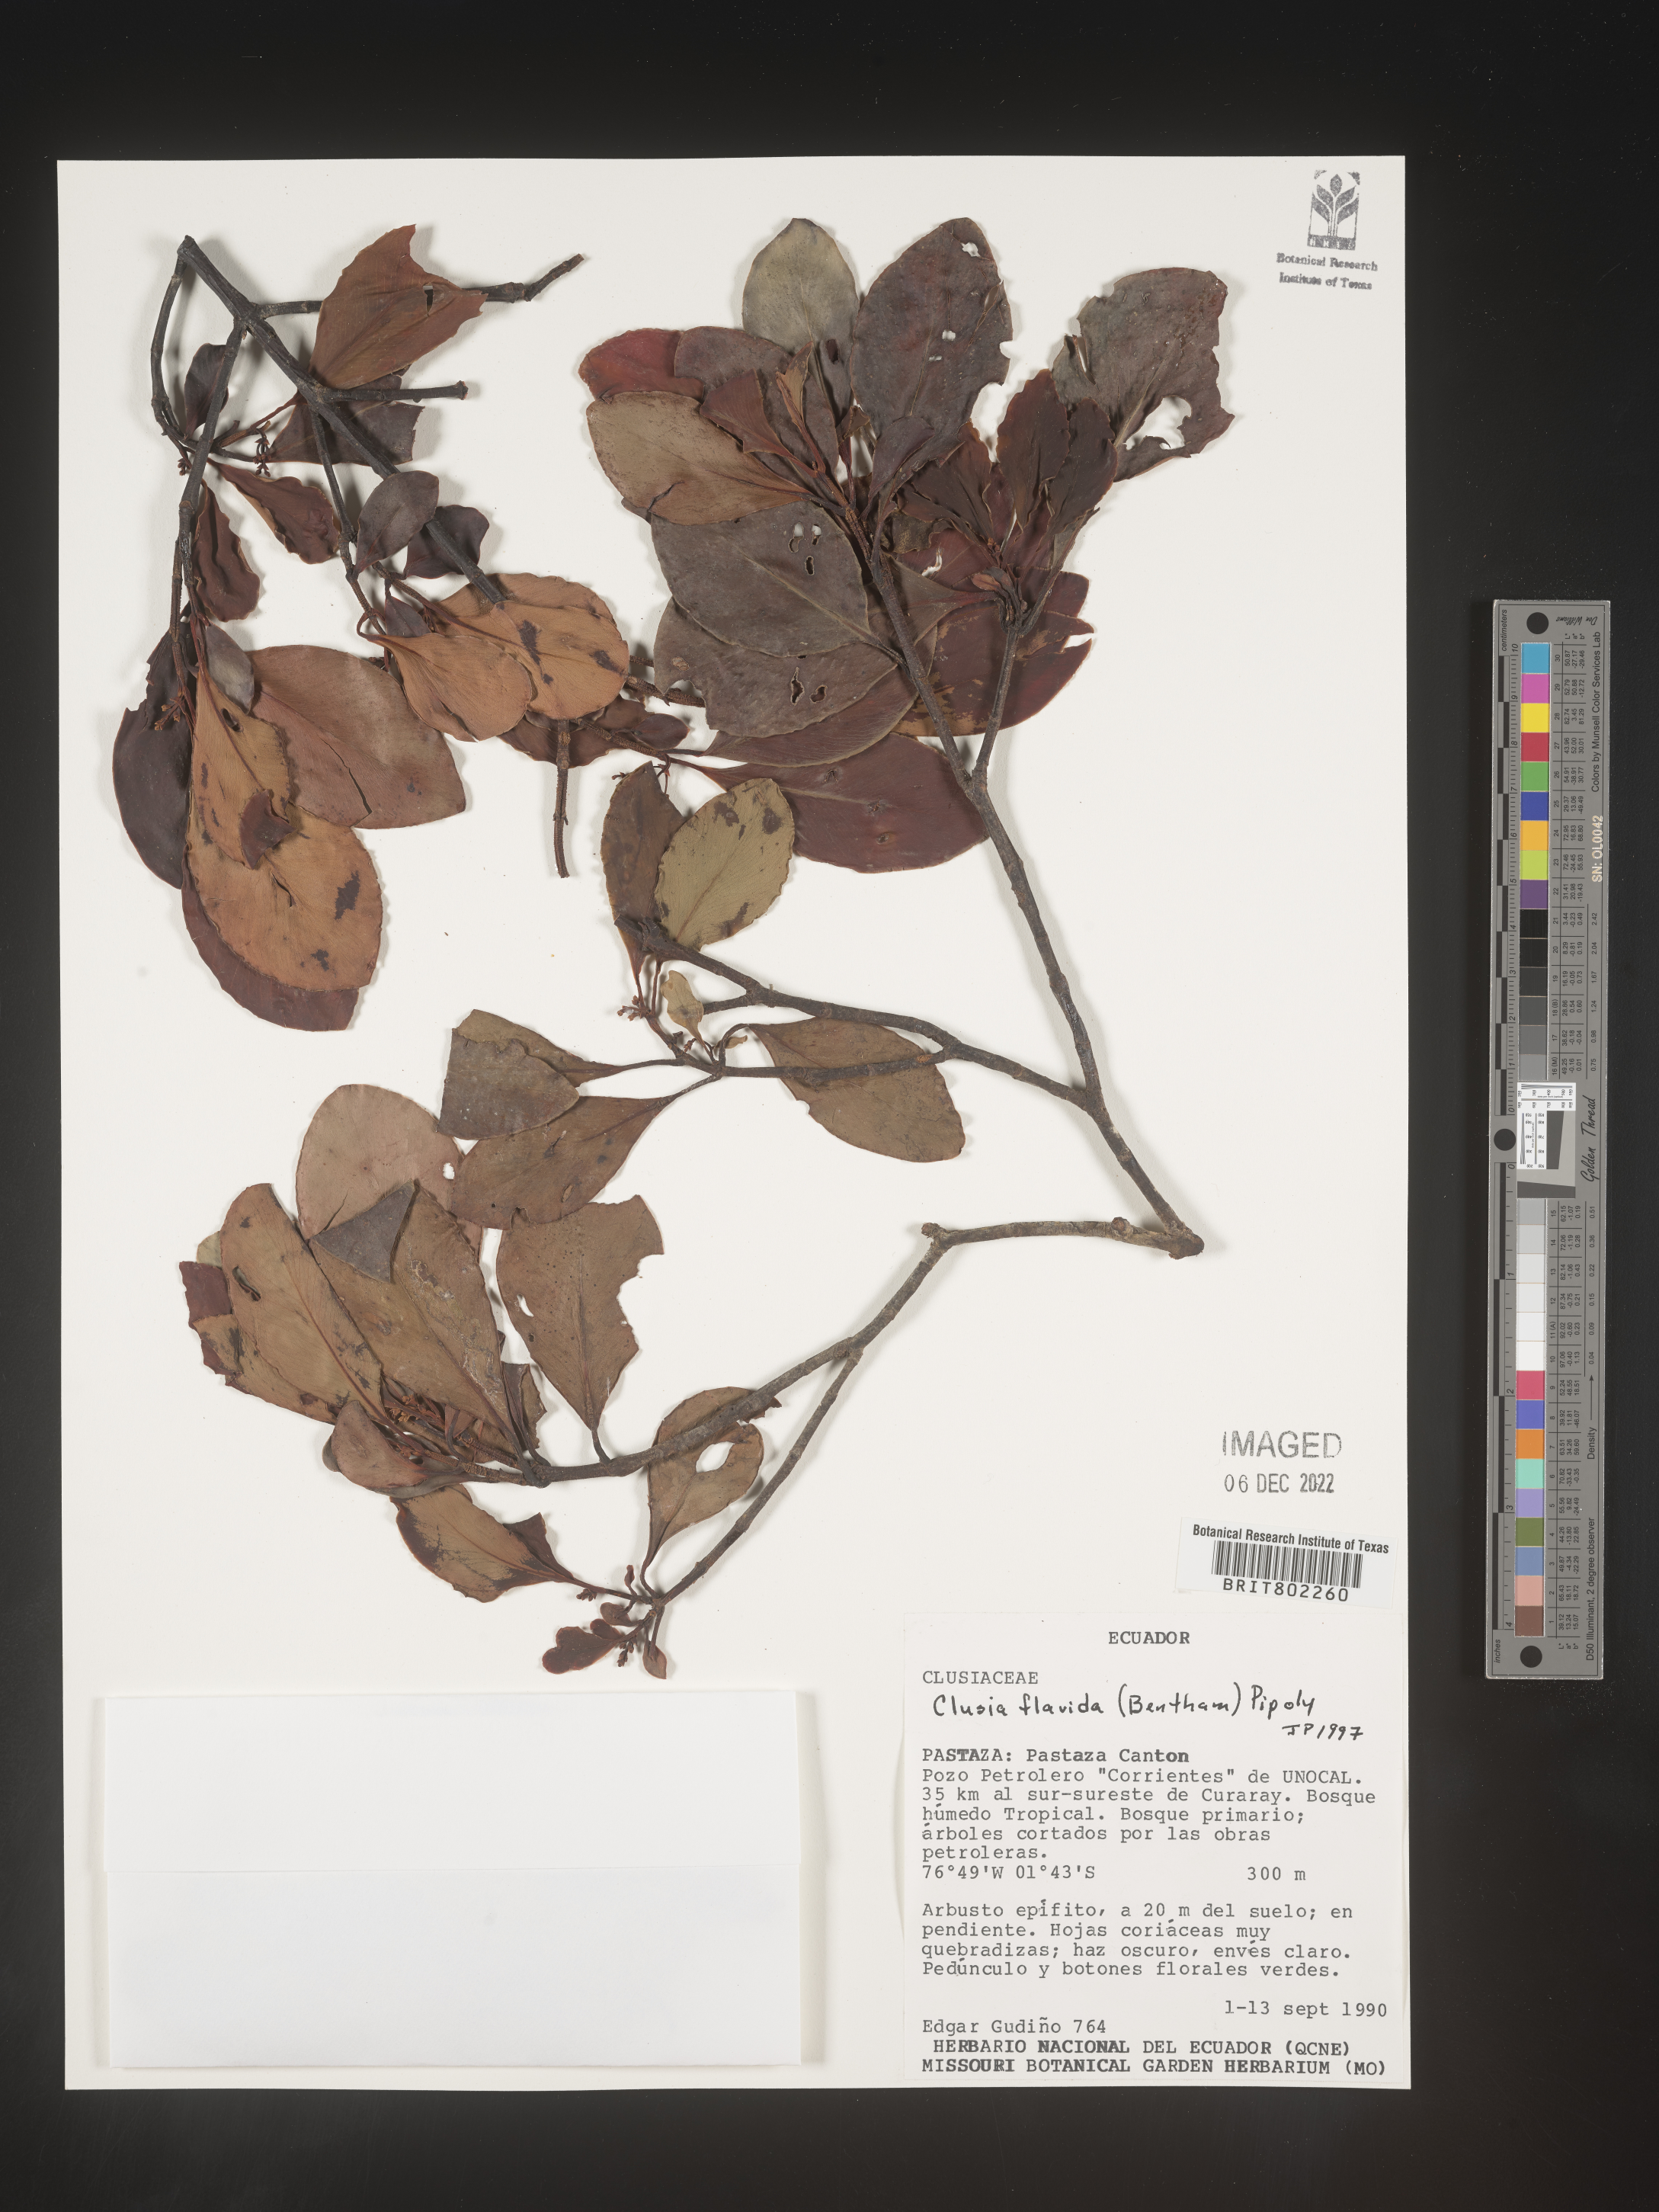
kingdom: Plantae
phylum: Tracheophyta
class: Magnoliopsida
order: Malpighiales
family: Clusiaceae
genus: Clusia
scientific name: Clusia flavida
